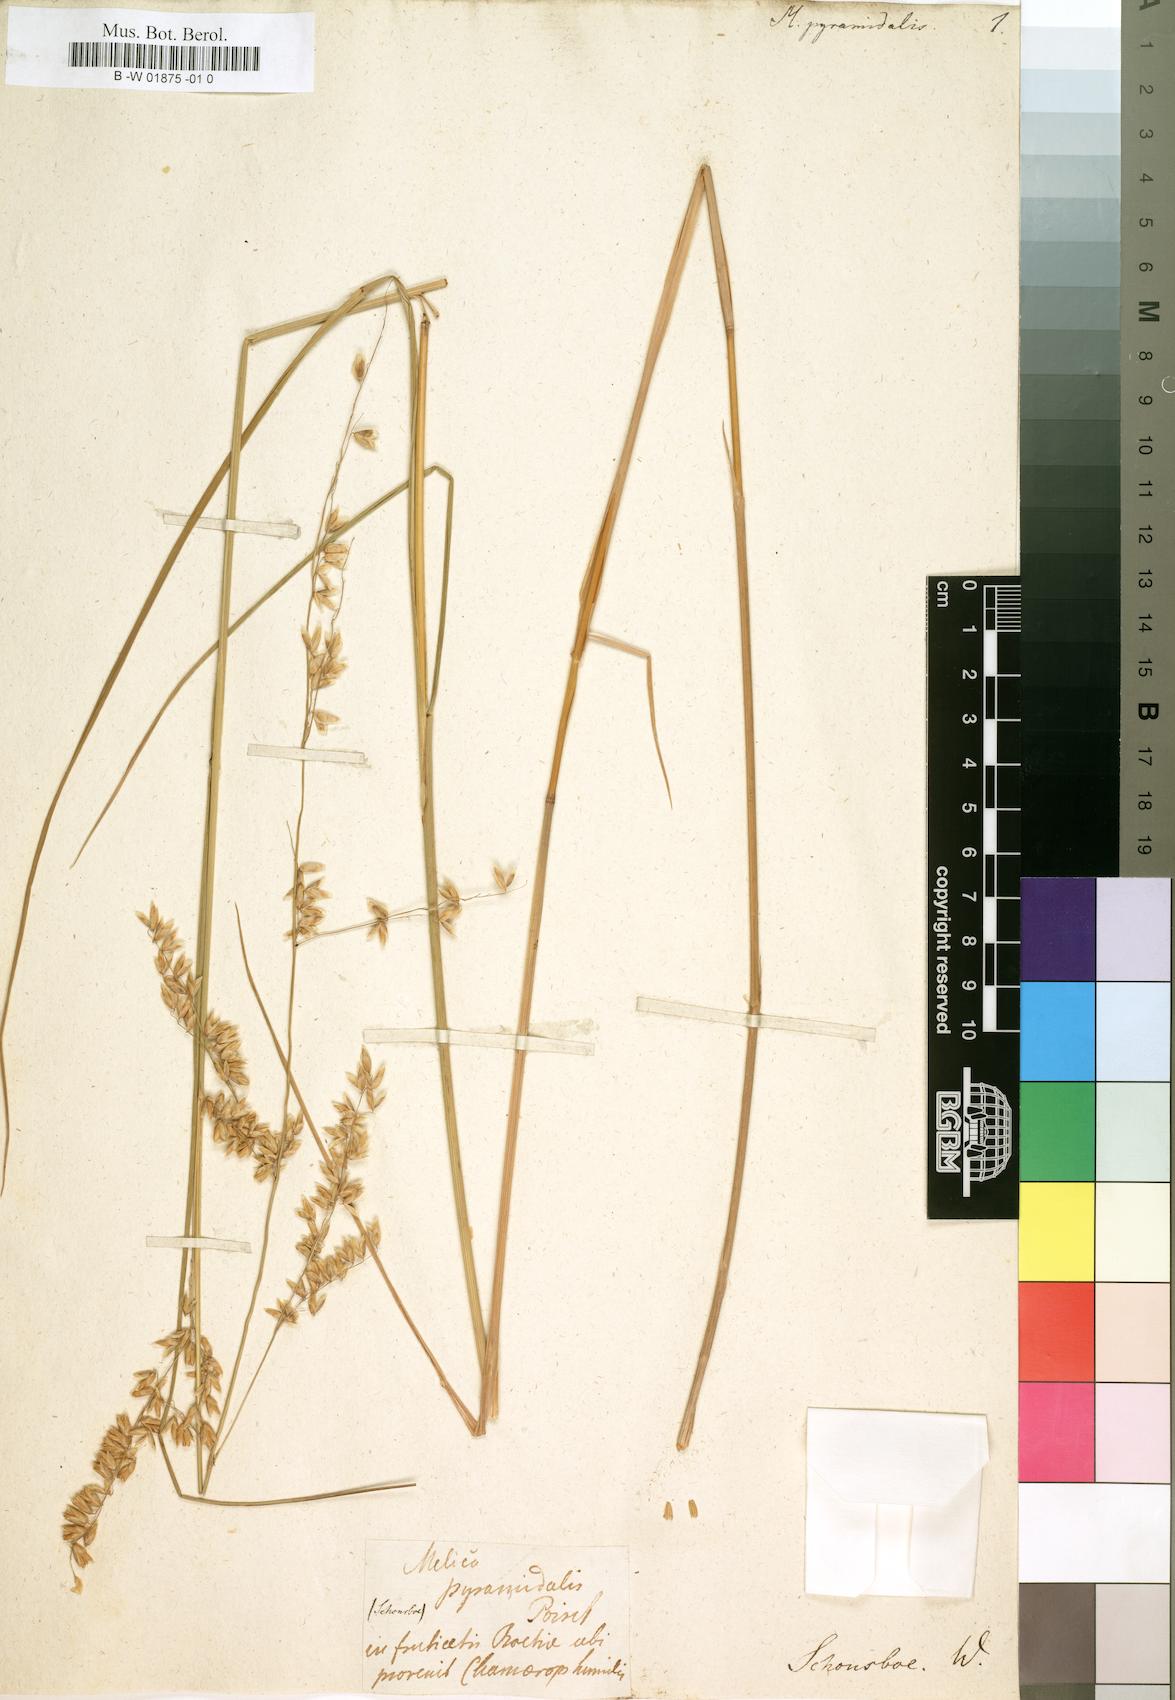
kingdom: Plantae
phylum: Tracheophyta
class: Liliopsida
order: Poales
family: Poaceae
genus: Melica
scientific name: Melica minuta
